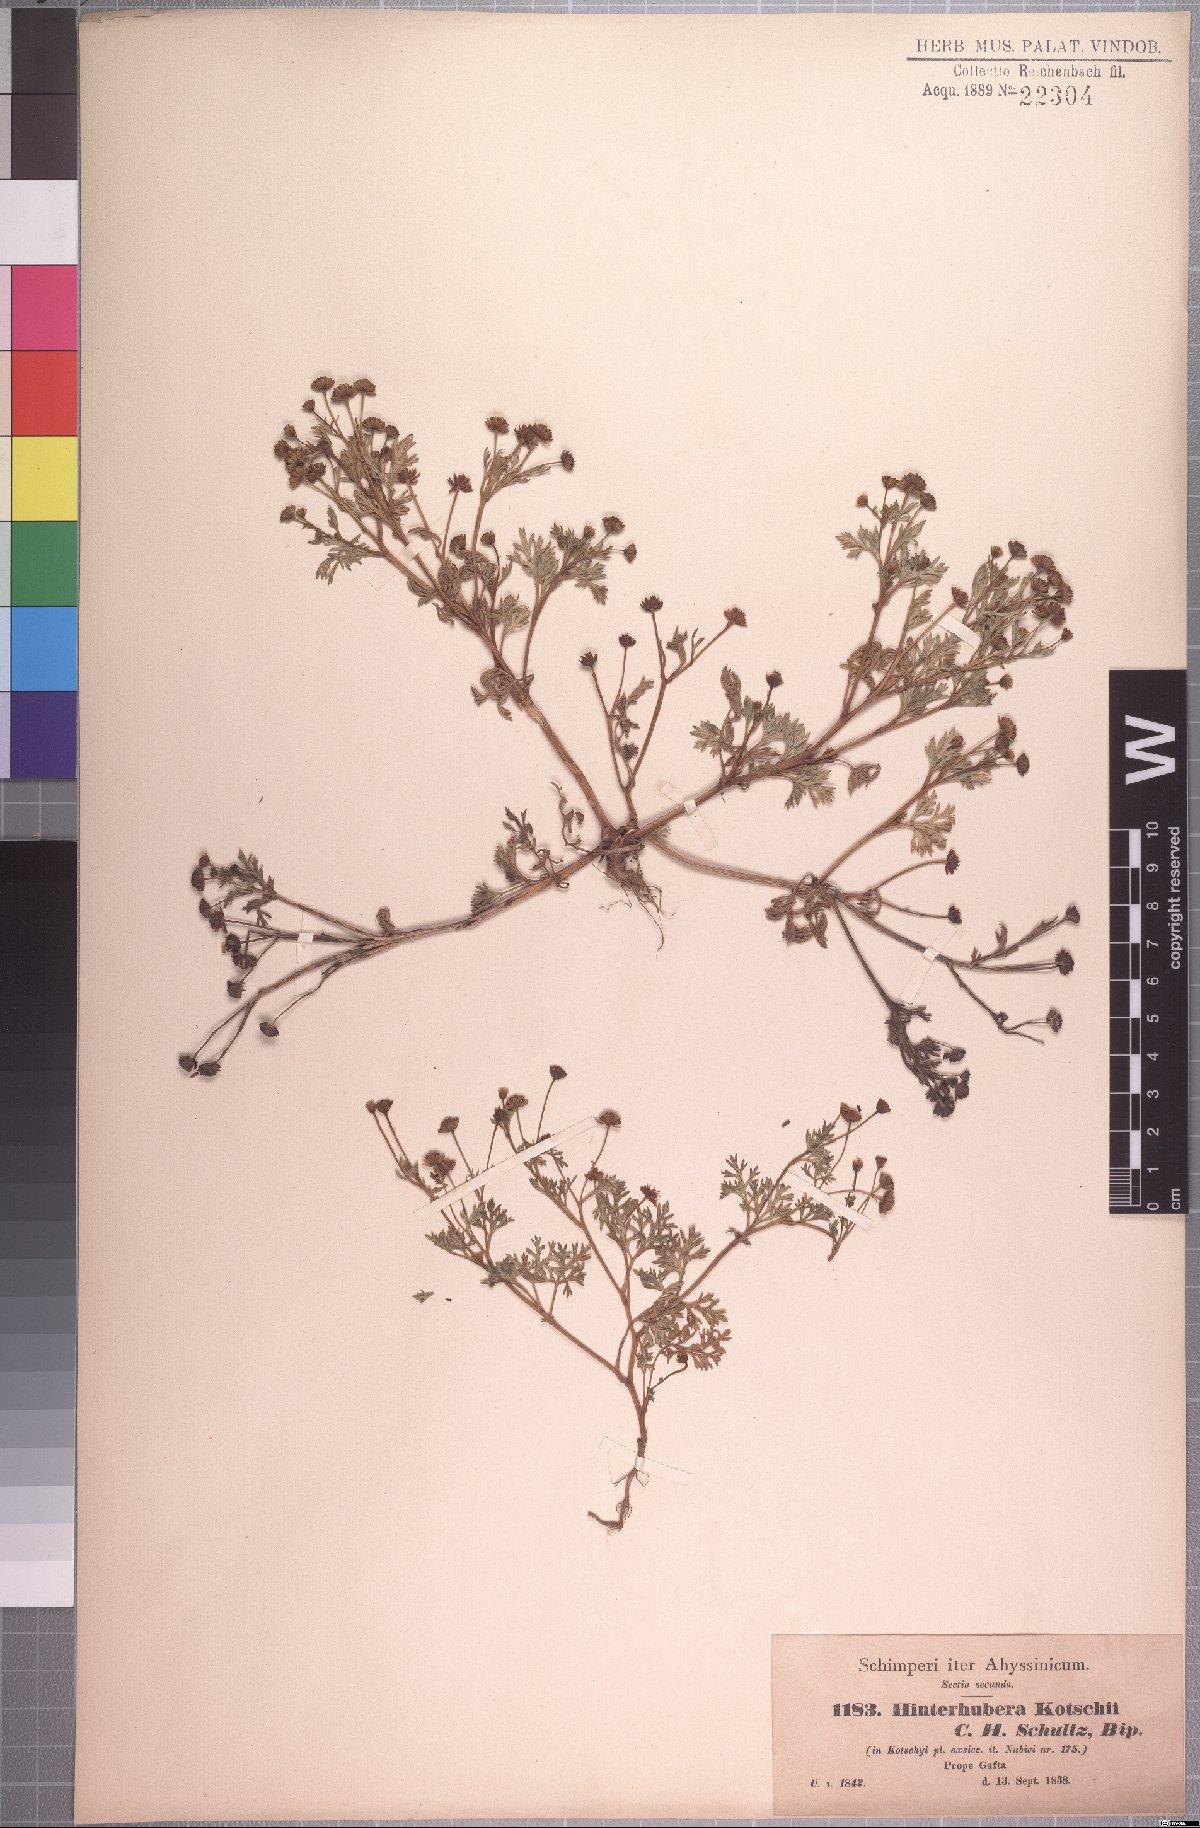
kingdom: Plantae
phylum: Tracheophyta
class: Magnoliopsida
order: Asterales
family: Asteraceae
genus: Chrysanthellum
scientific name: Chrysanthellum indicum
